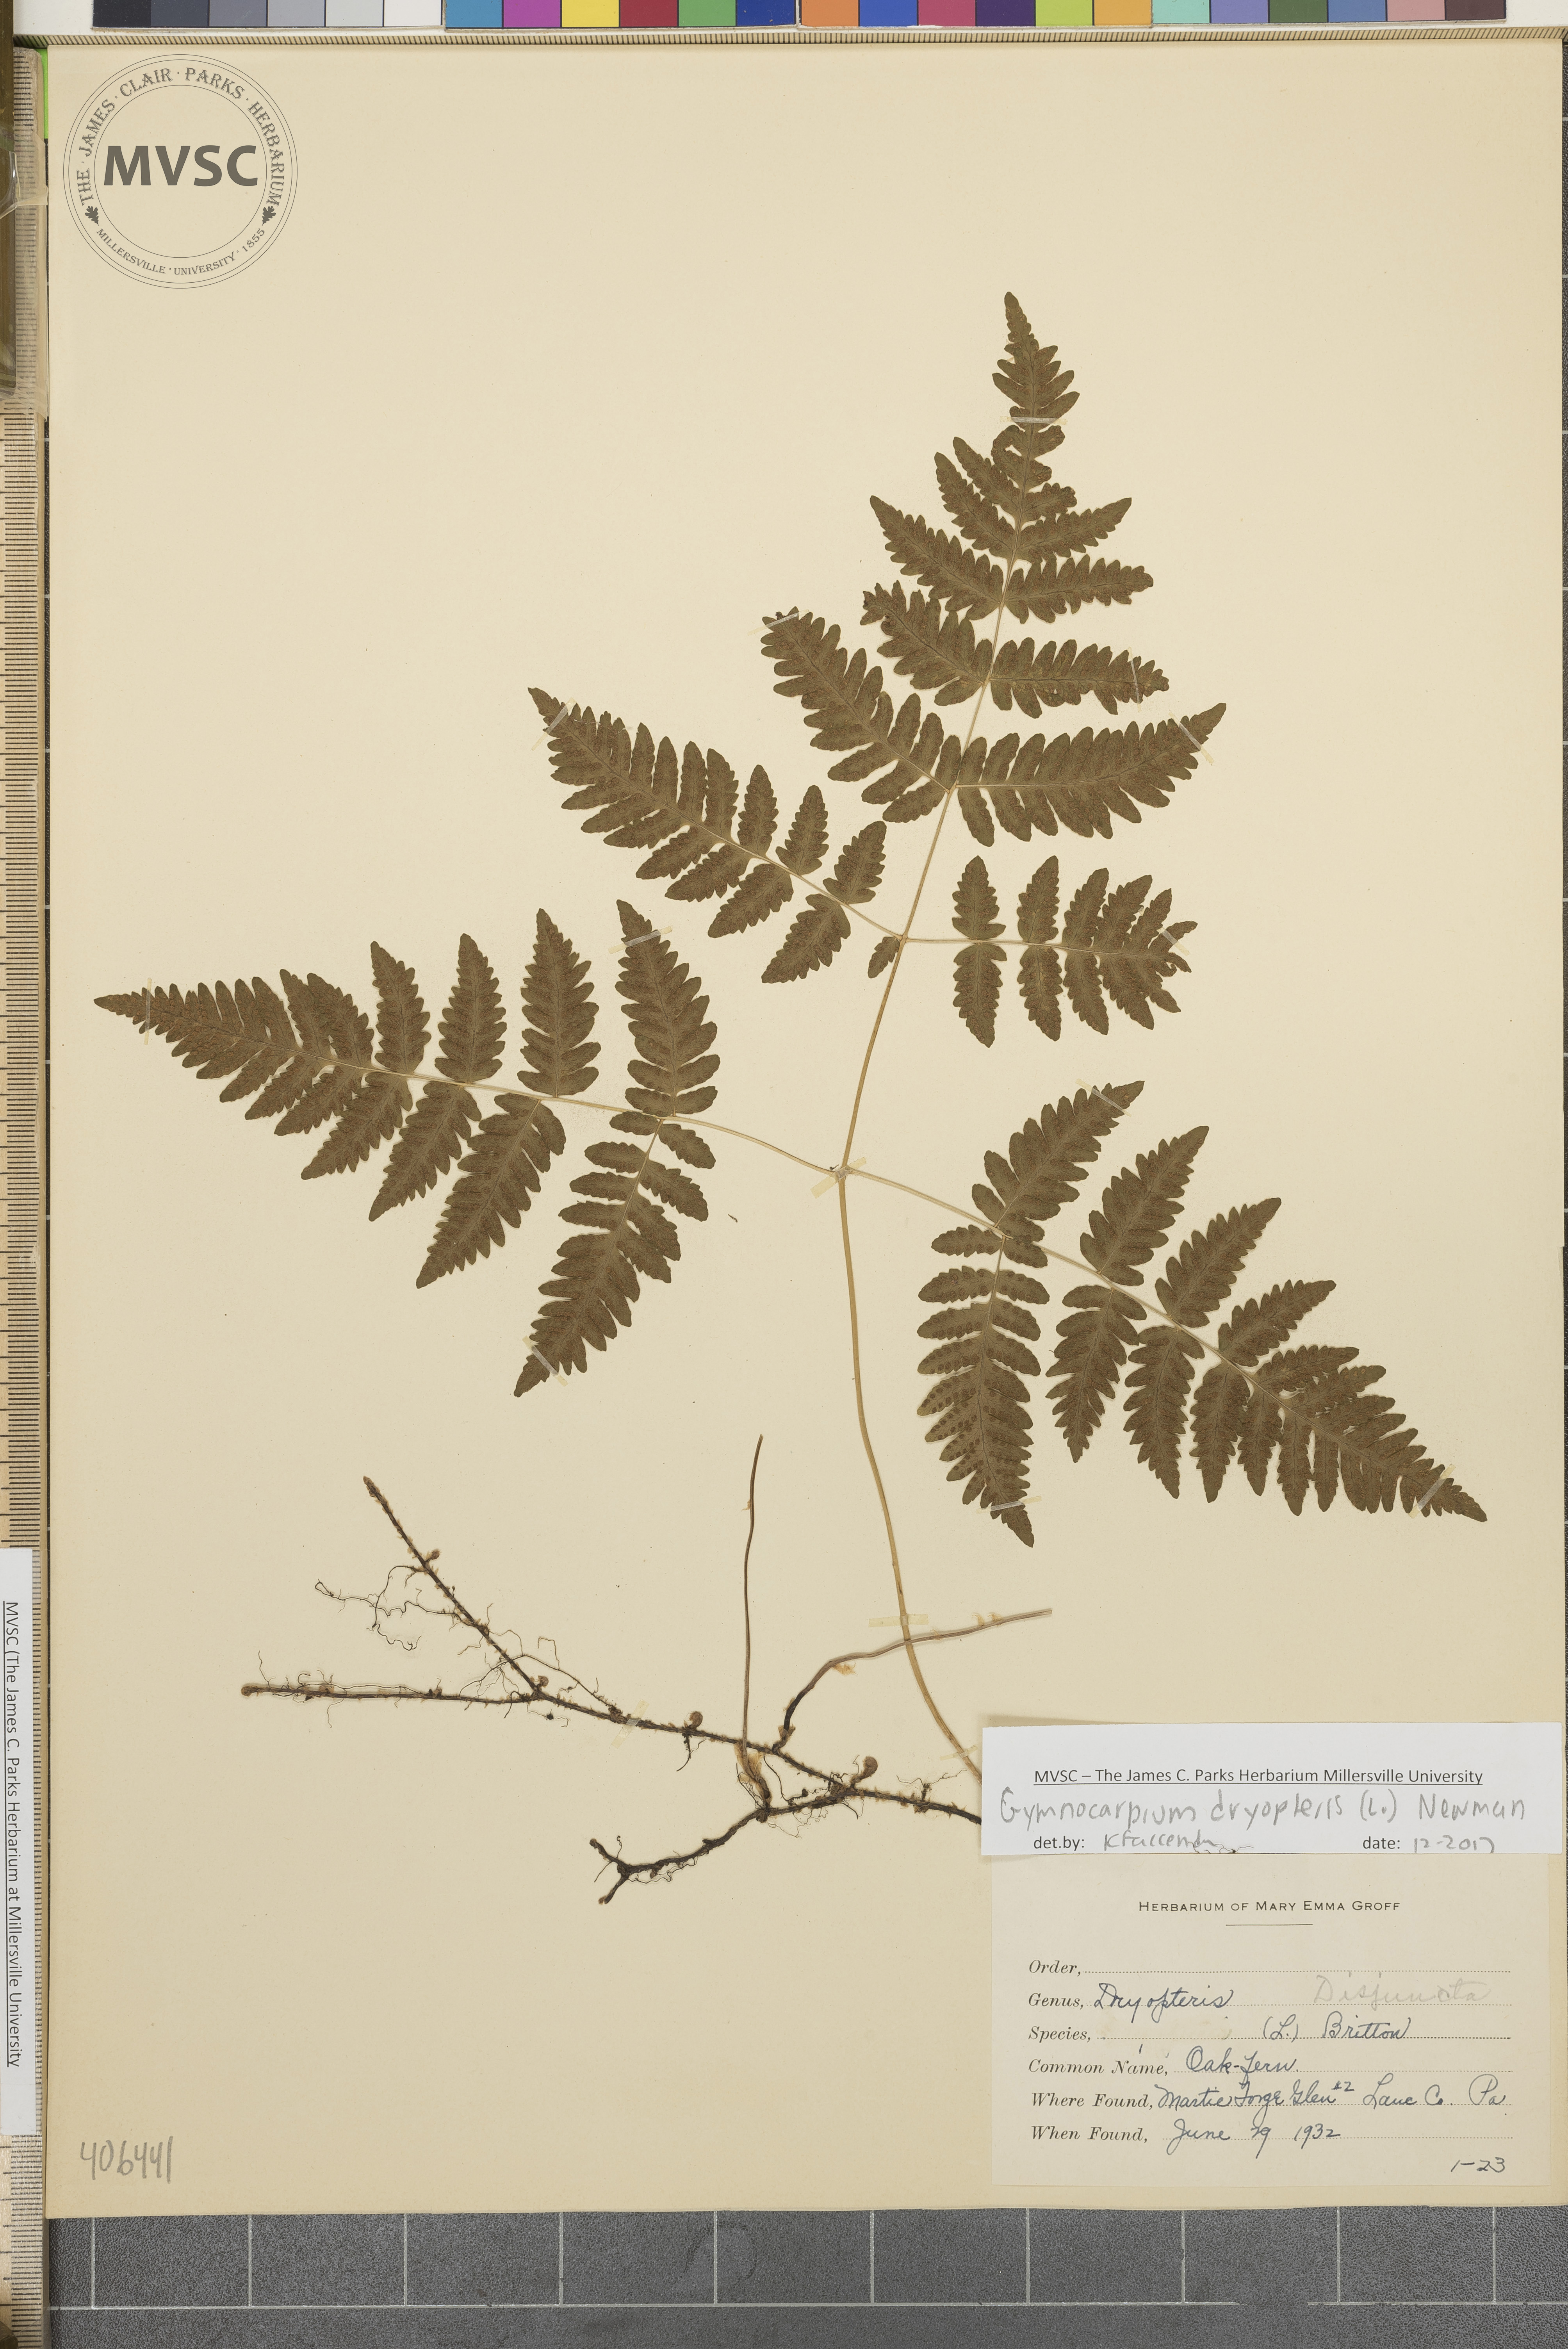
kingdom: Plantae
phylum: Tracheophyta
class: Polypodiopsida
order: Polypodiales
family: Cystopteridaceae
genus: Gymnocarpium
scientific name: Gymnocarpium dryopteris
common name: Oak fern
